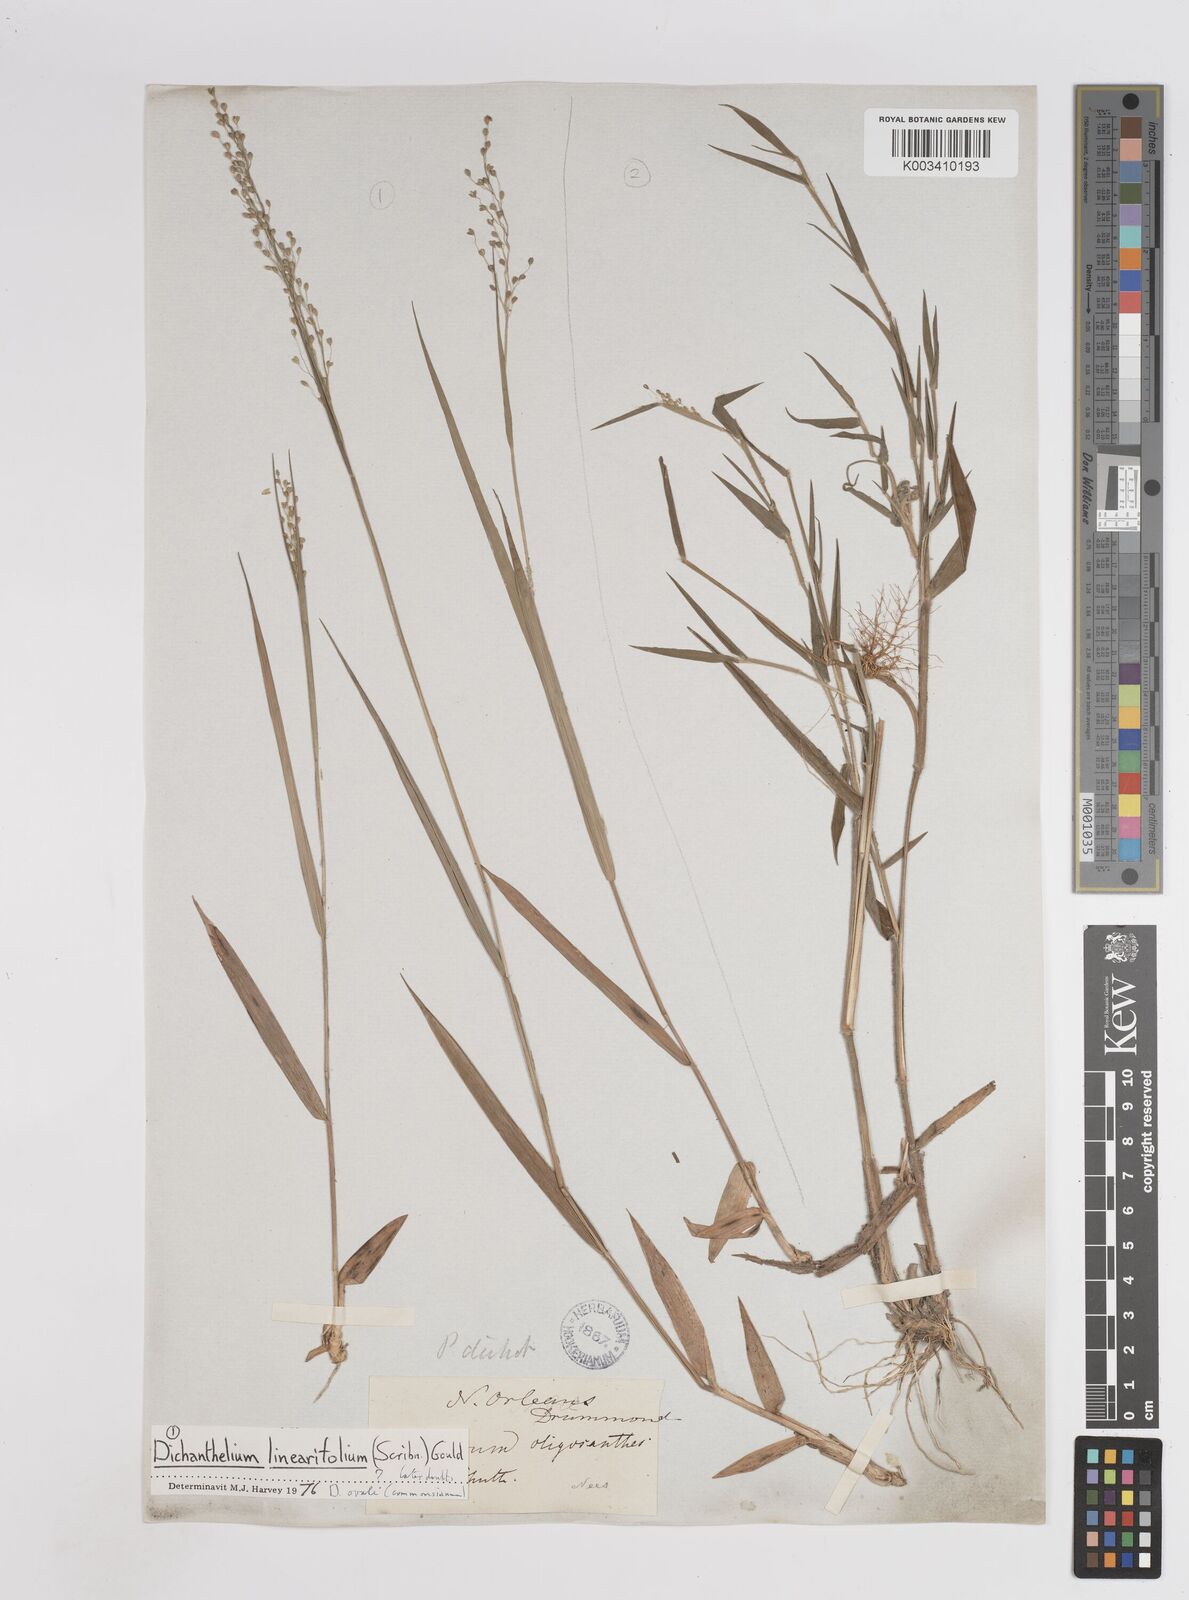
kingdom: Plantae
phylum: Tracheophyta
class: Liliopsida
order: Poales
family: Poaceae
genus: Dichanthelium
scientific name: Dichanthelium linearifolium
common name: Linear-leaved panicgrass
